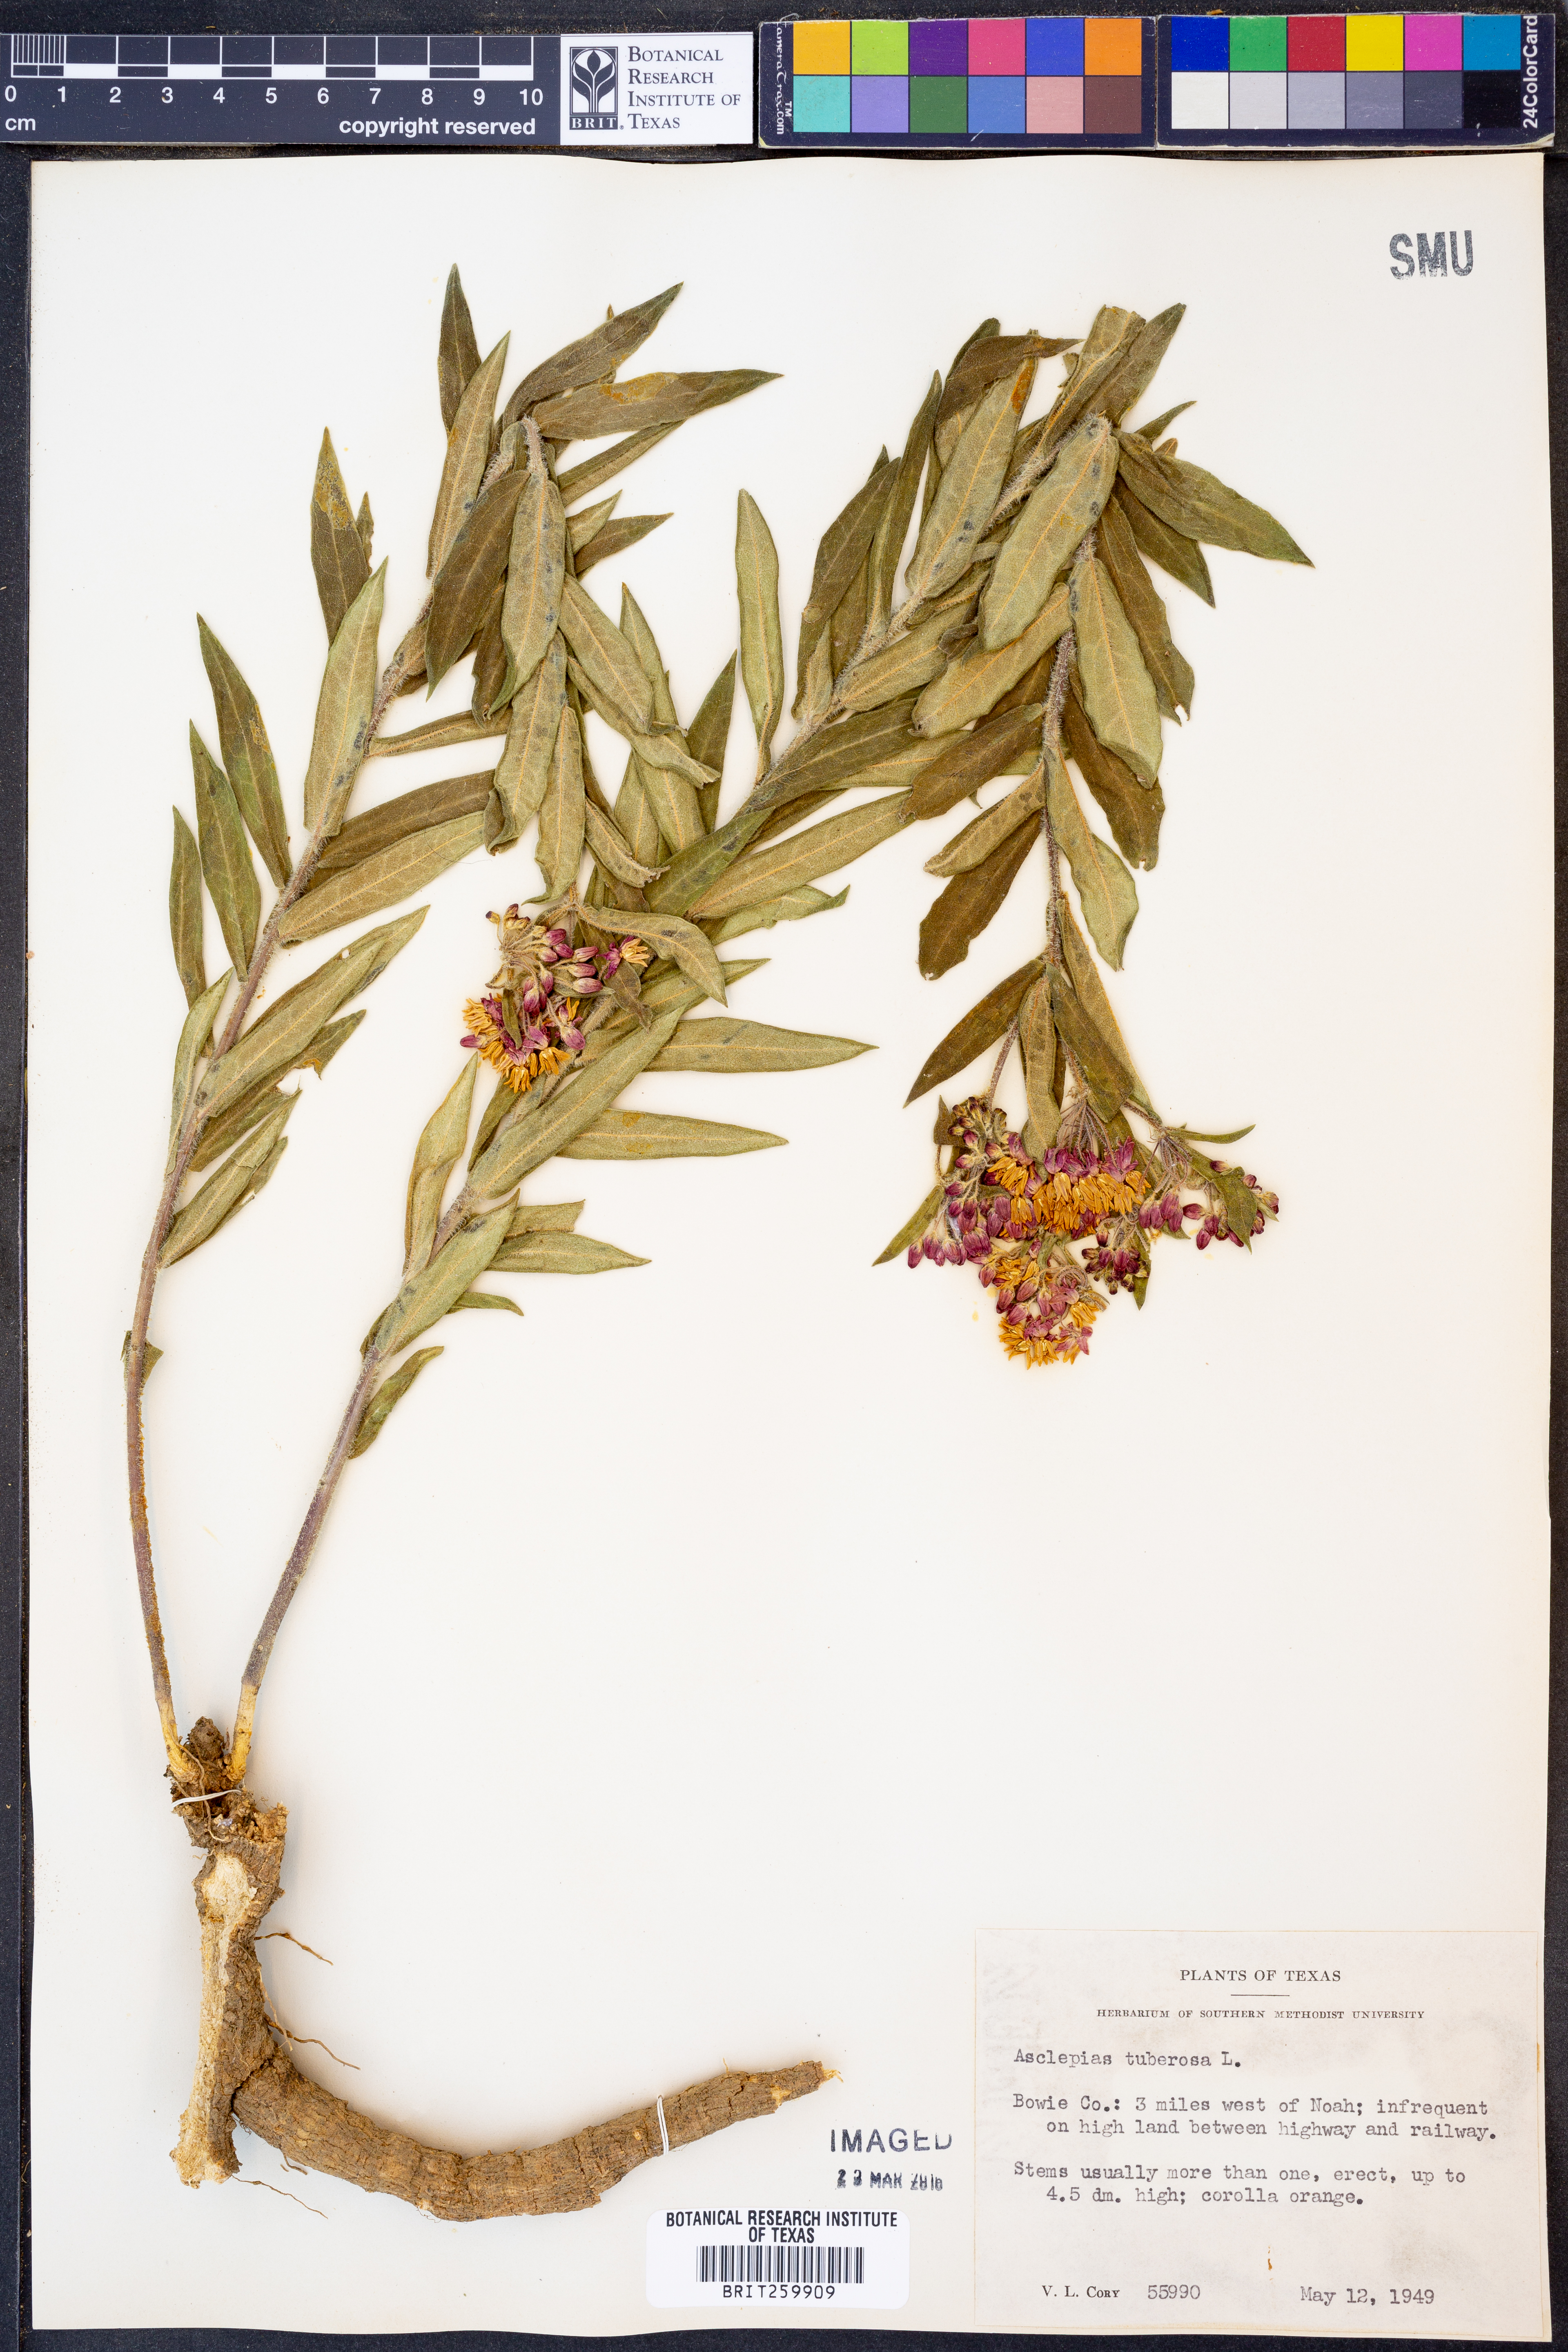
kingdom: Plantae
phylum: Tracheophyta
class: Magnoliopsida
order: Gentianales
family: Apocynaceae
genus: Asclepias
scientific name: Asclepias tuberosa
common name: Butterfly milkweed
